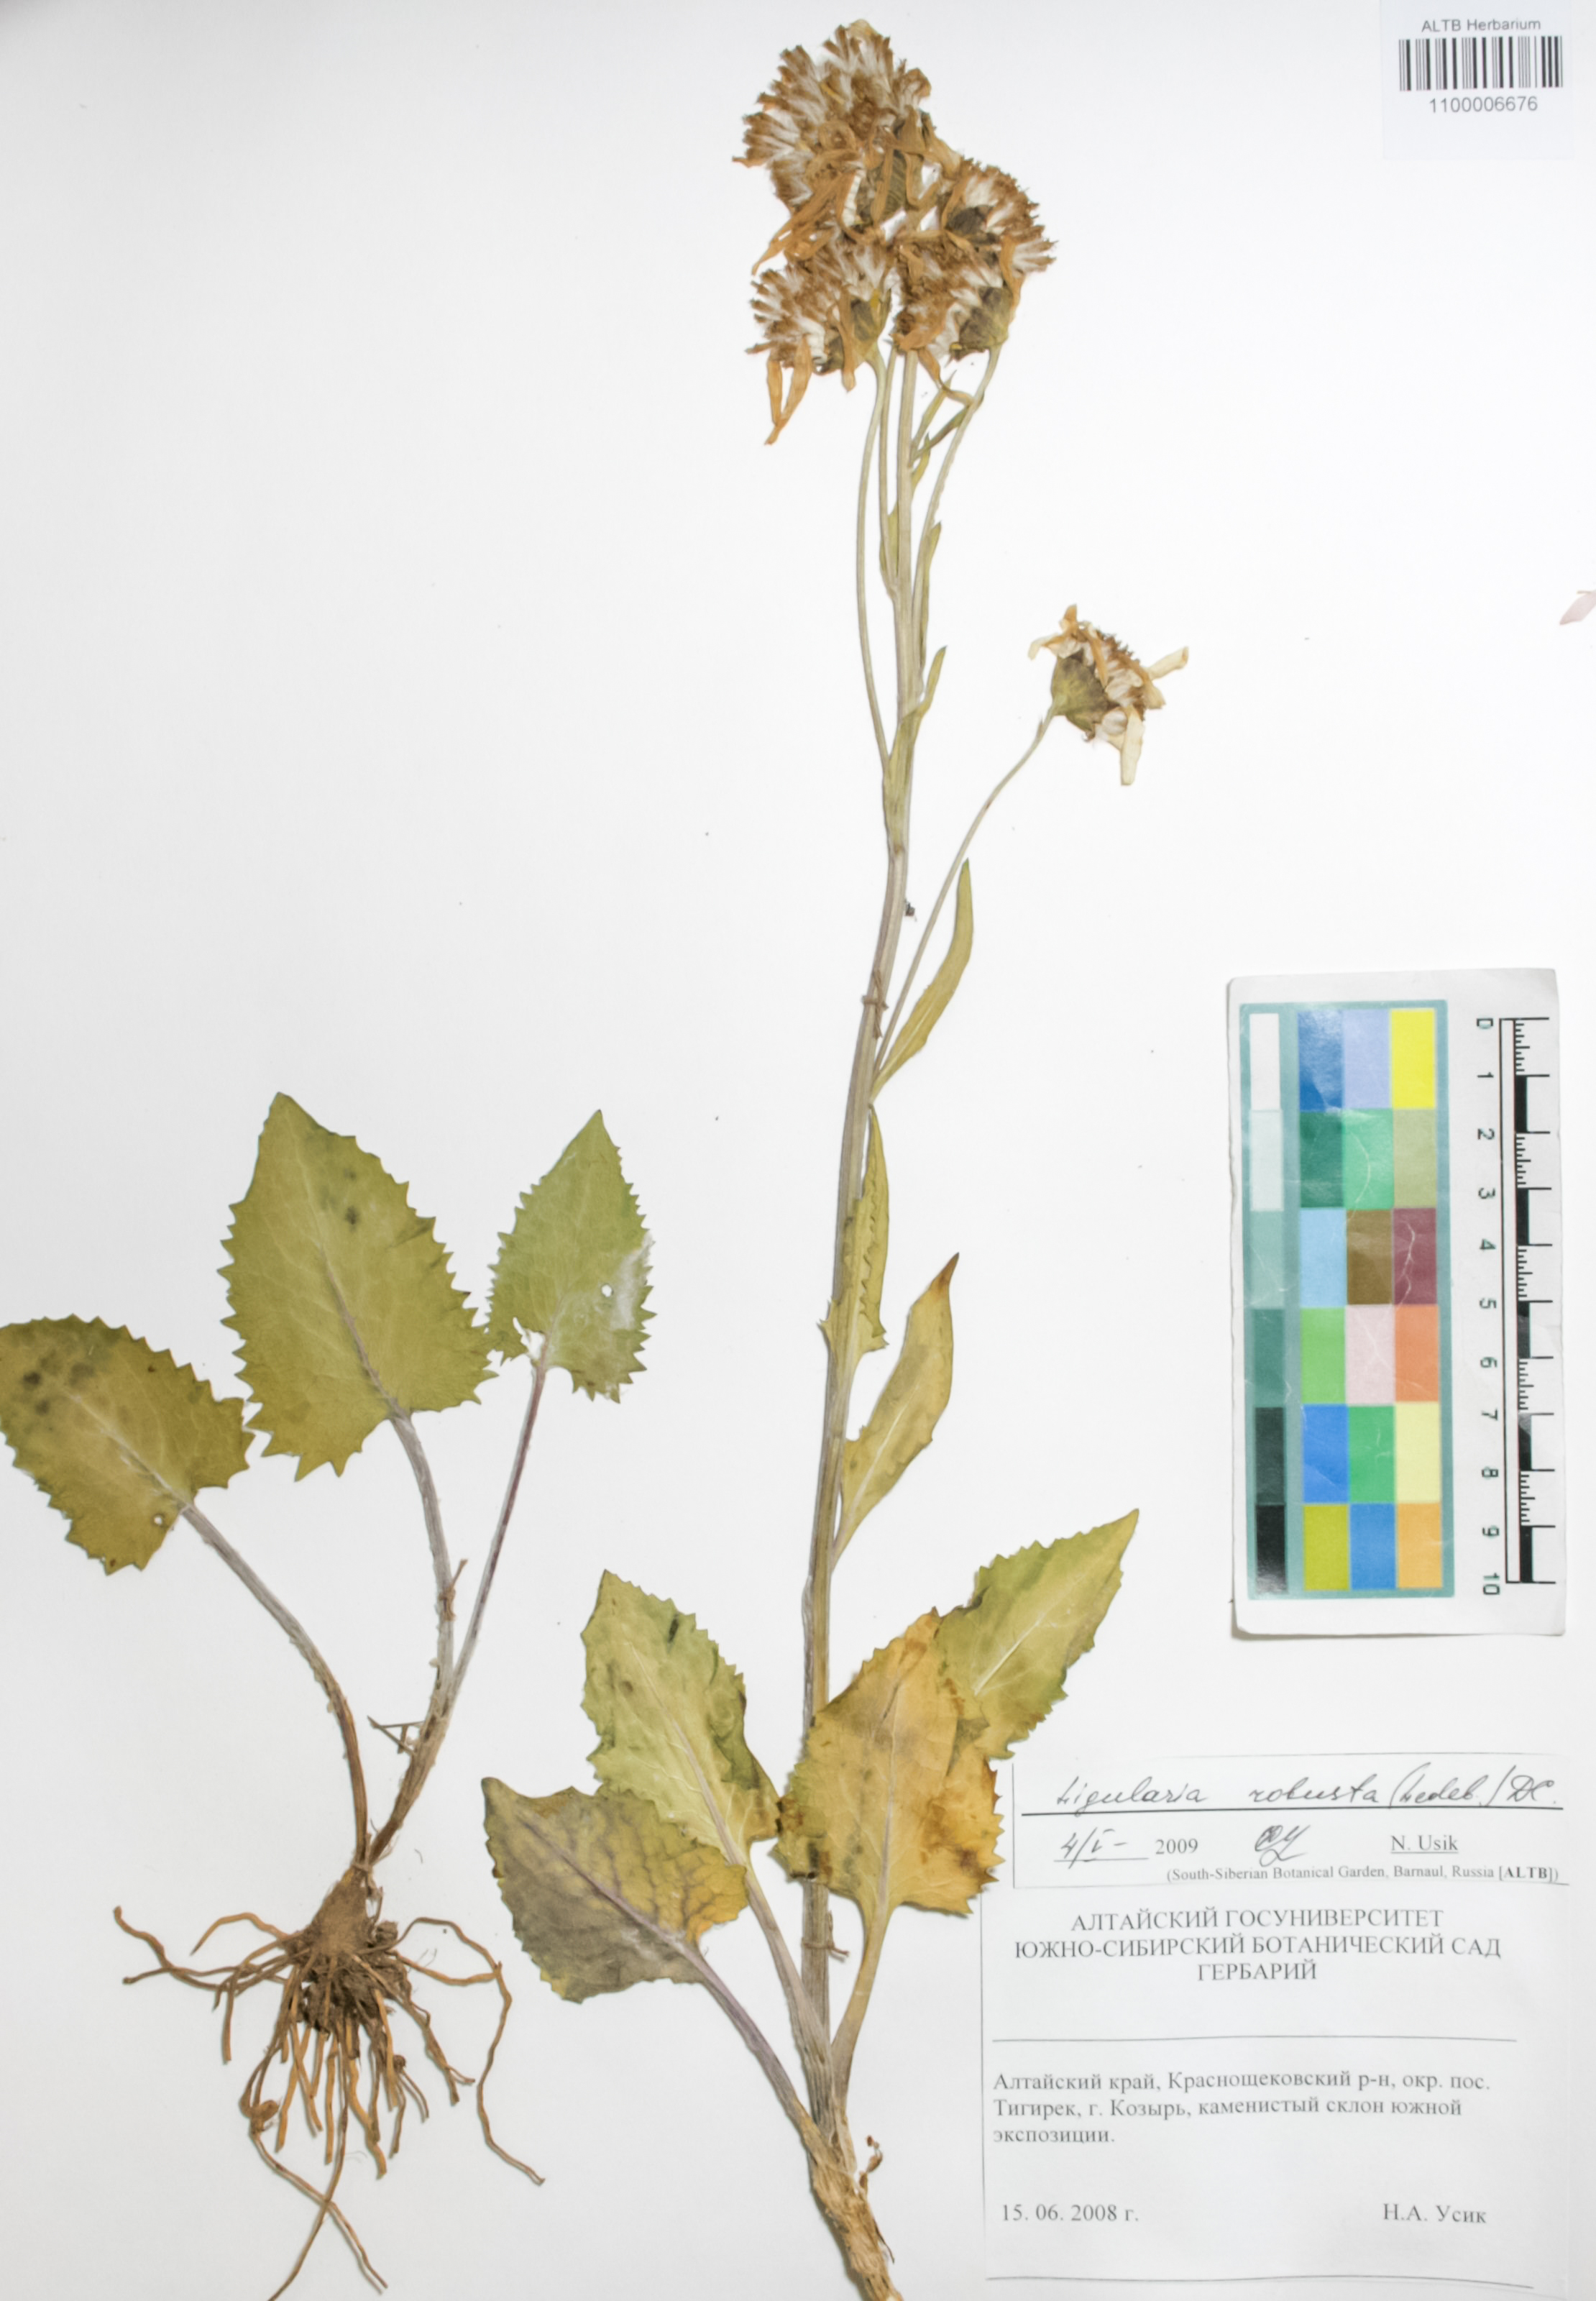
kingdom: Plantae
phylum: Tracheophyta
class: Magnoliopsida
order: Asterales
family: Asteraceae
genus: Vickifunkia
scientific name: Vickifunkia robusta
